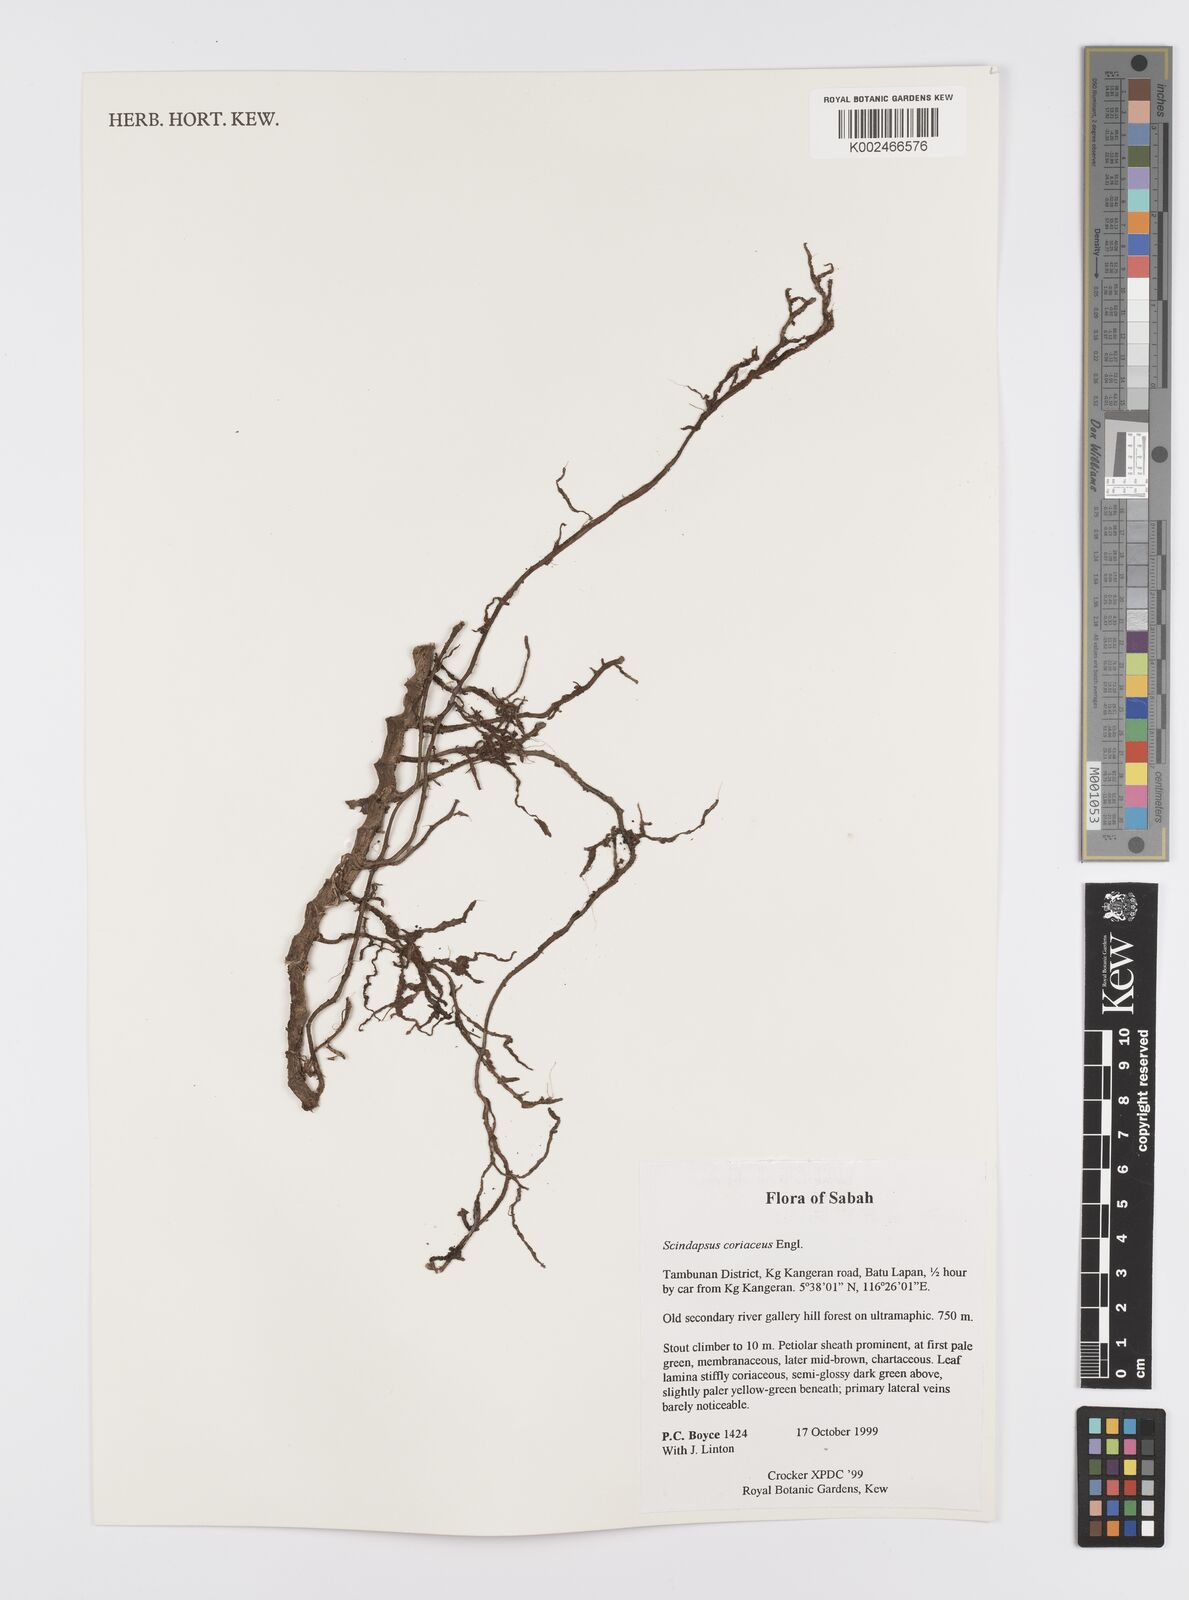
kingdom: Plantae
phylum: Tracheophyta
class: Liliopsida
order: Alismatales
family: Araceae
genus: Scindapsus
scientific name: Scindapsus coriaceus
